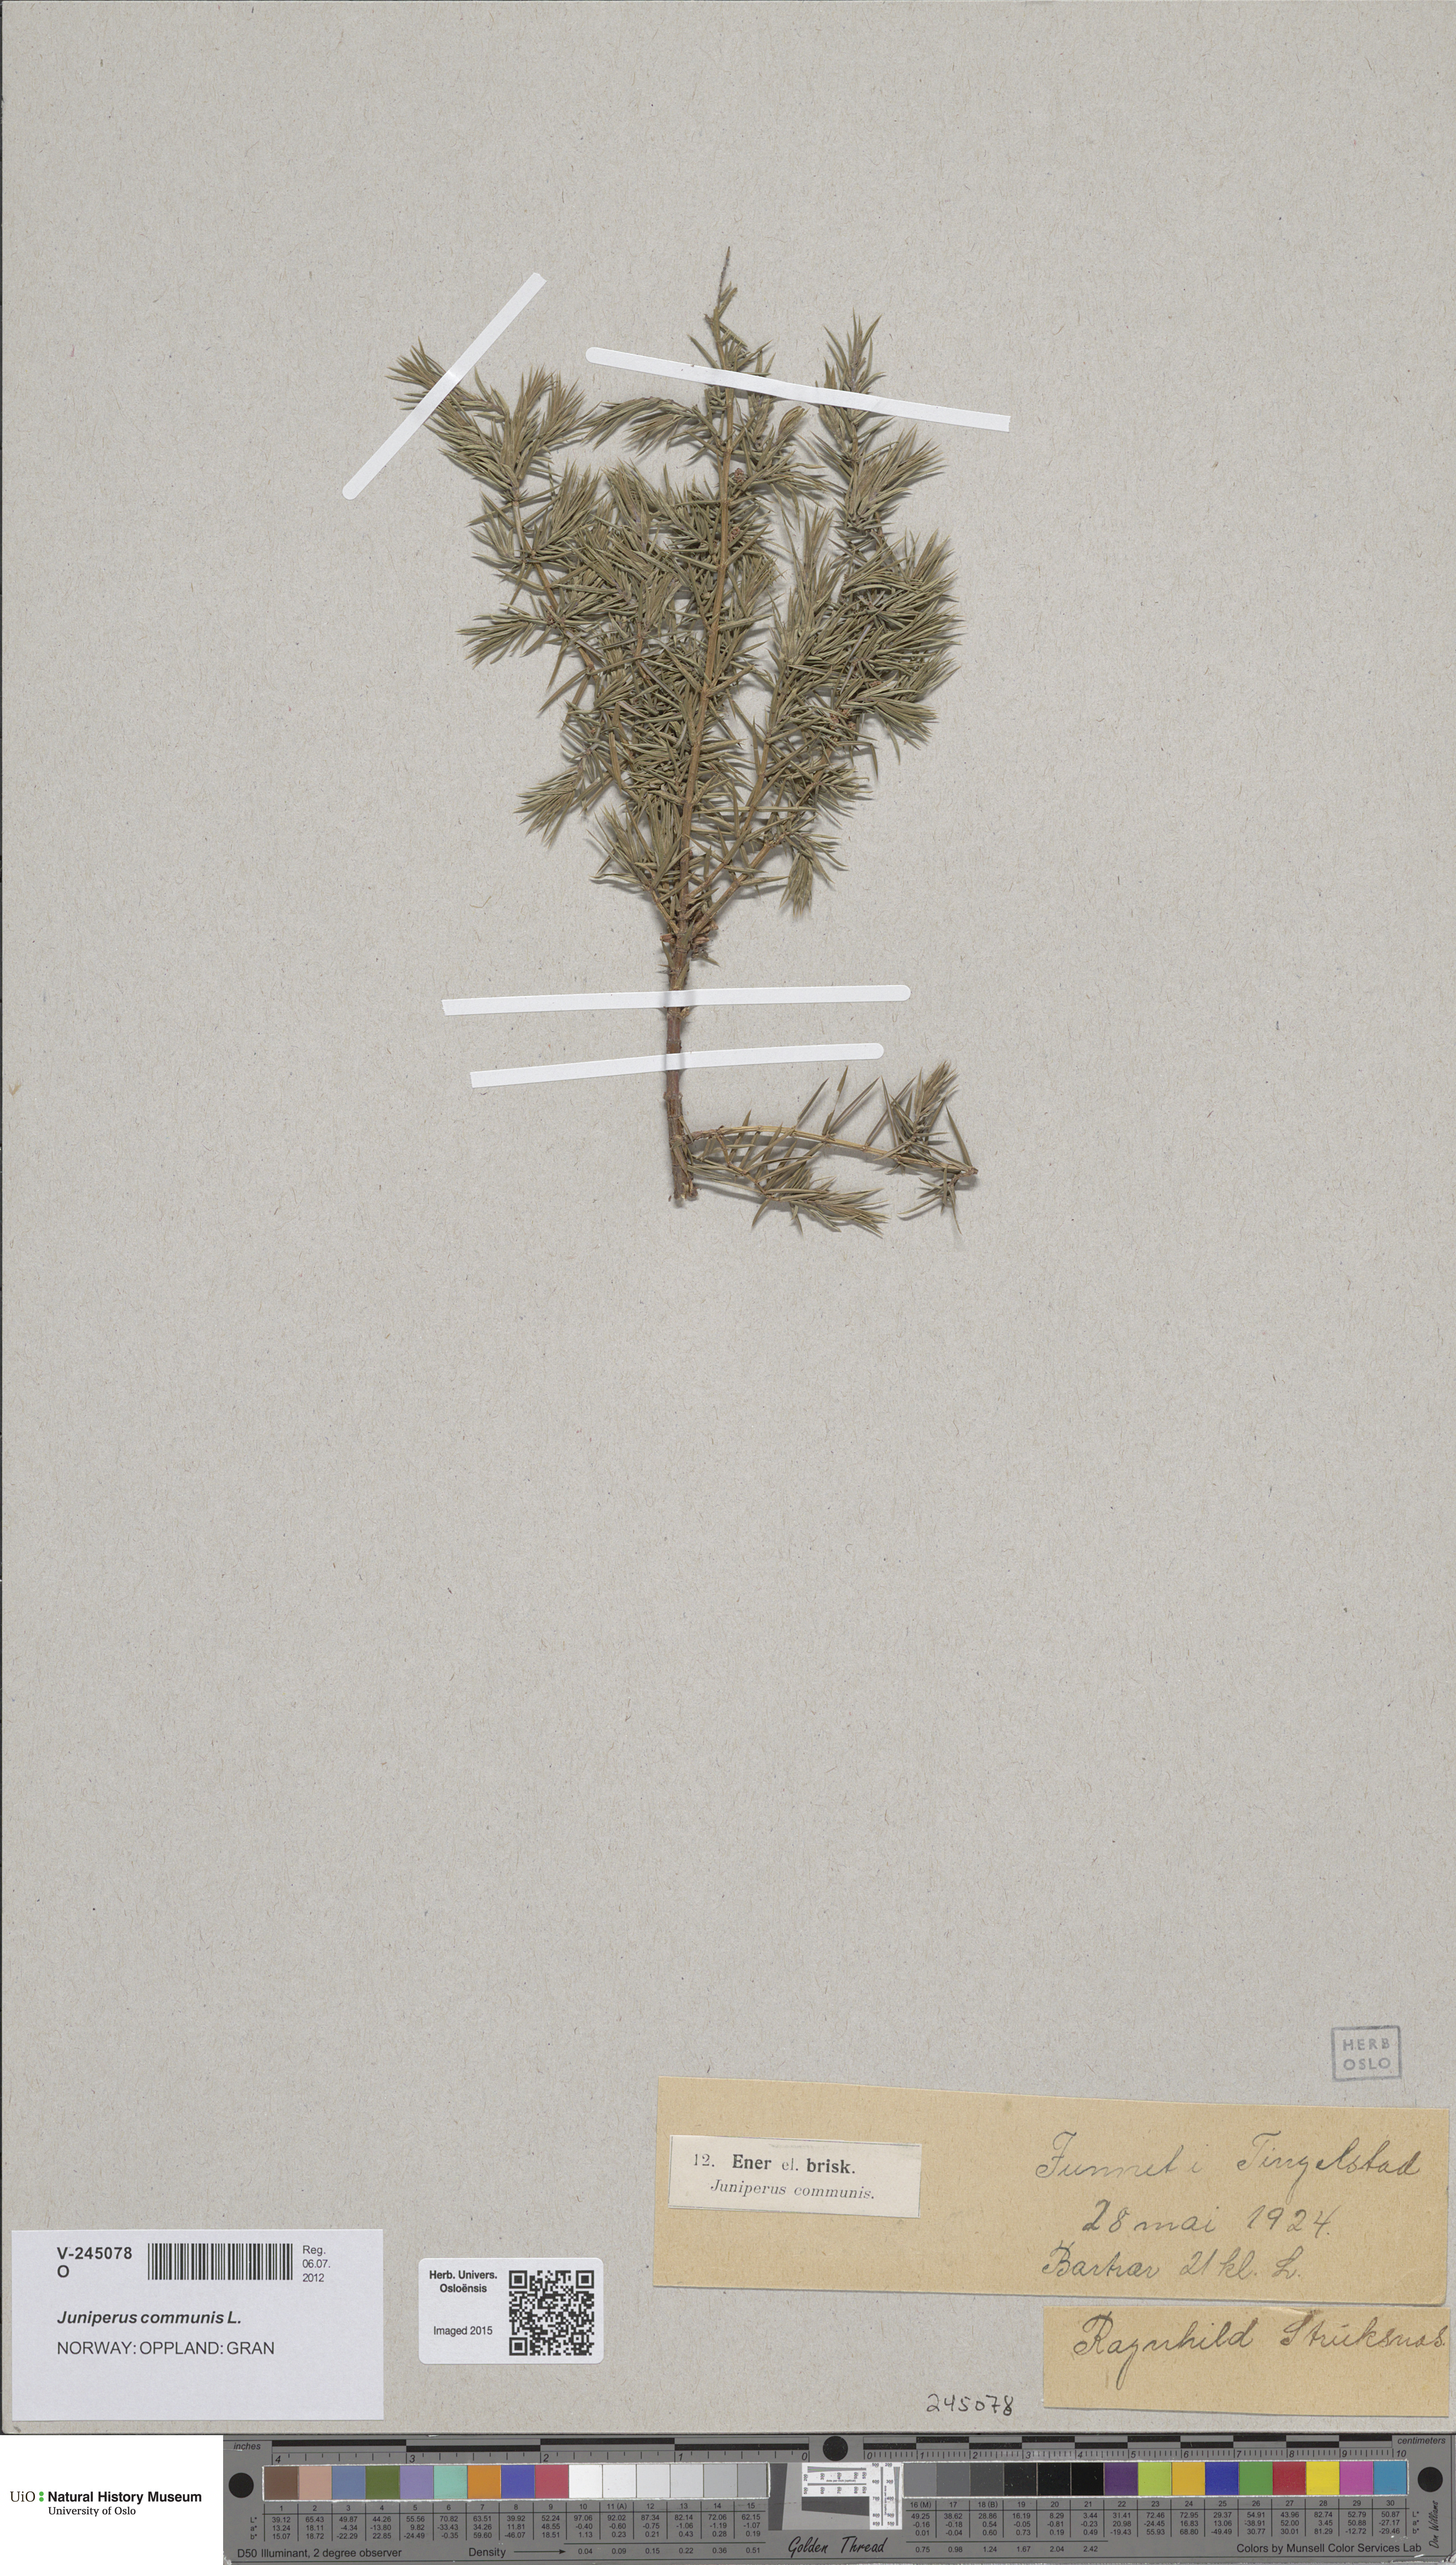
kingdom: Plantae
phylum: Tracheophyta
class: Pinopsida
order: Pinales
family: Cupressaceae
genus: Juniperus
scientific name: Juniperus communis
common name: Common juniper
